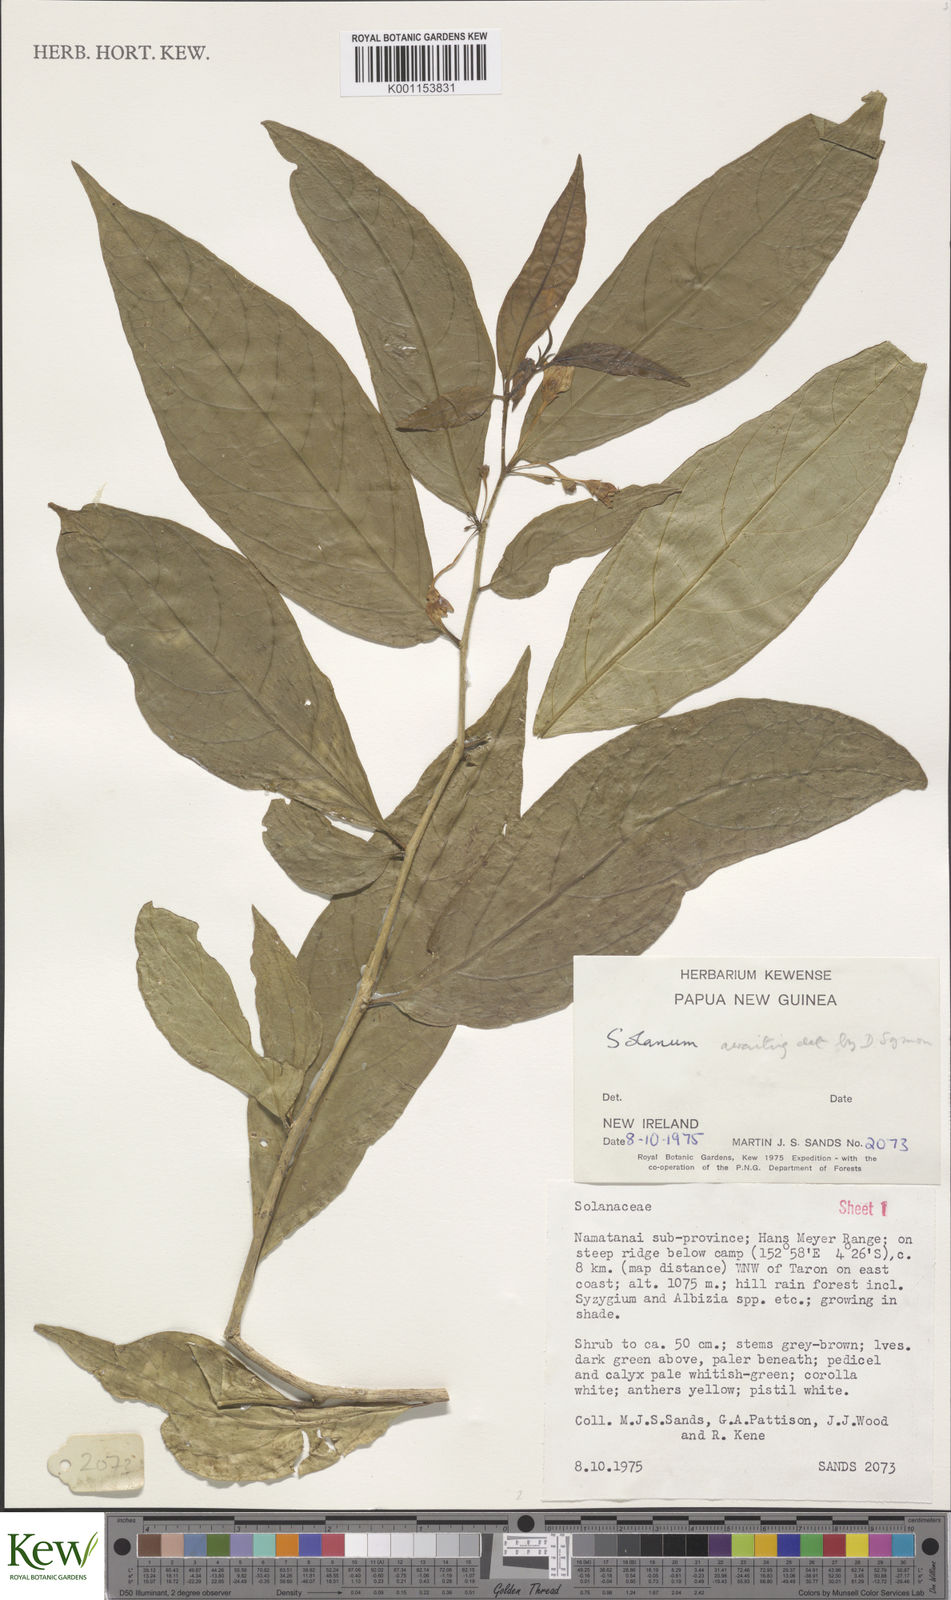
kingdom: Plantae
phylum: Tracheophyta
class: Magnoliopsida
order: Solanales
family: Solanaceae
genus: Solanum
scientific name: Solanum
